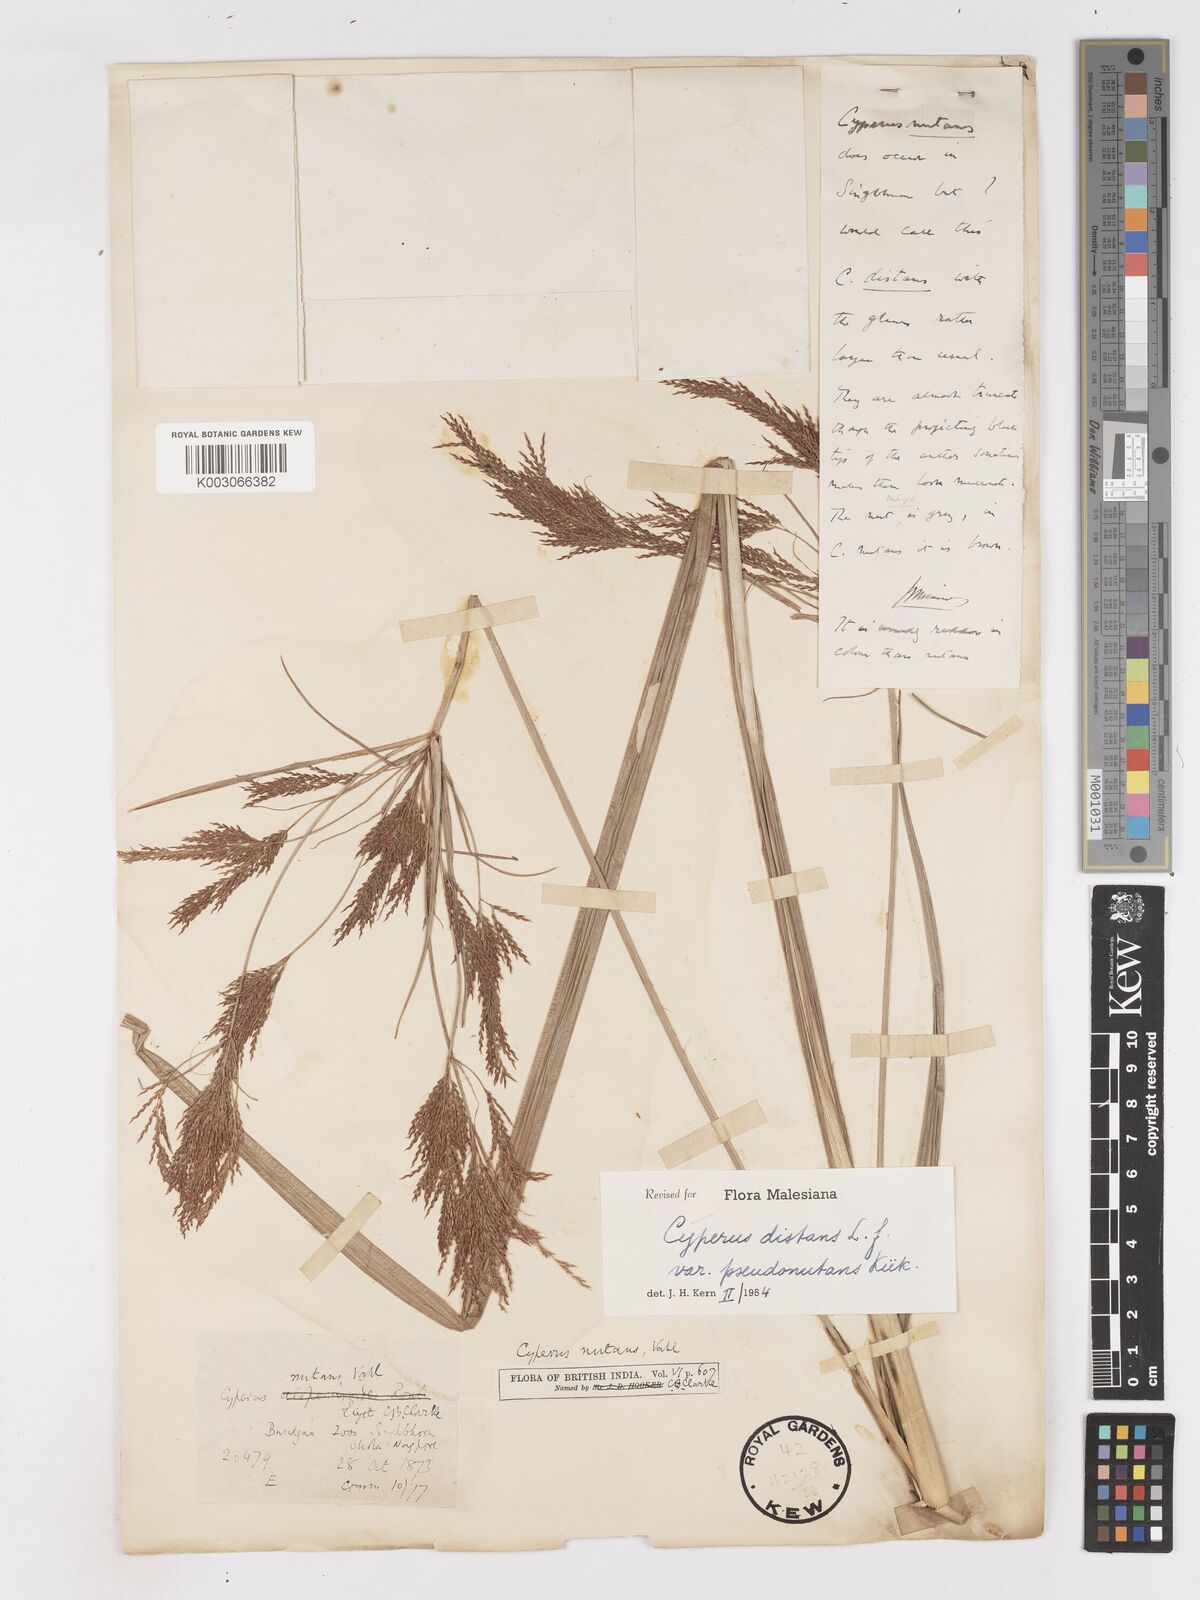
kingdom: Plantae
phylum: Tracheophyta
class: Liliopsida
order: Poales
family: Cyperaceae
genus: Cyperus
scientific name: Cyperus distans
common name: Slender cyperus
